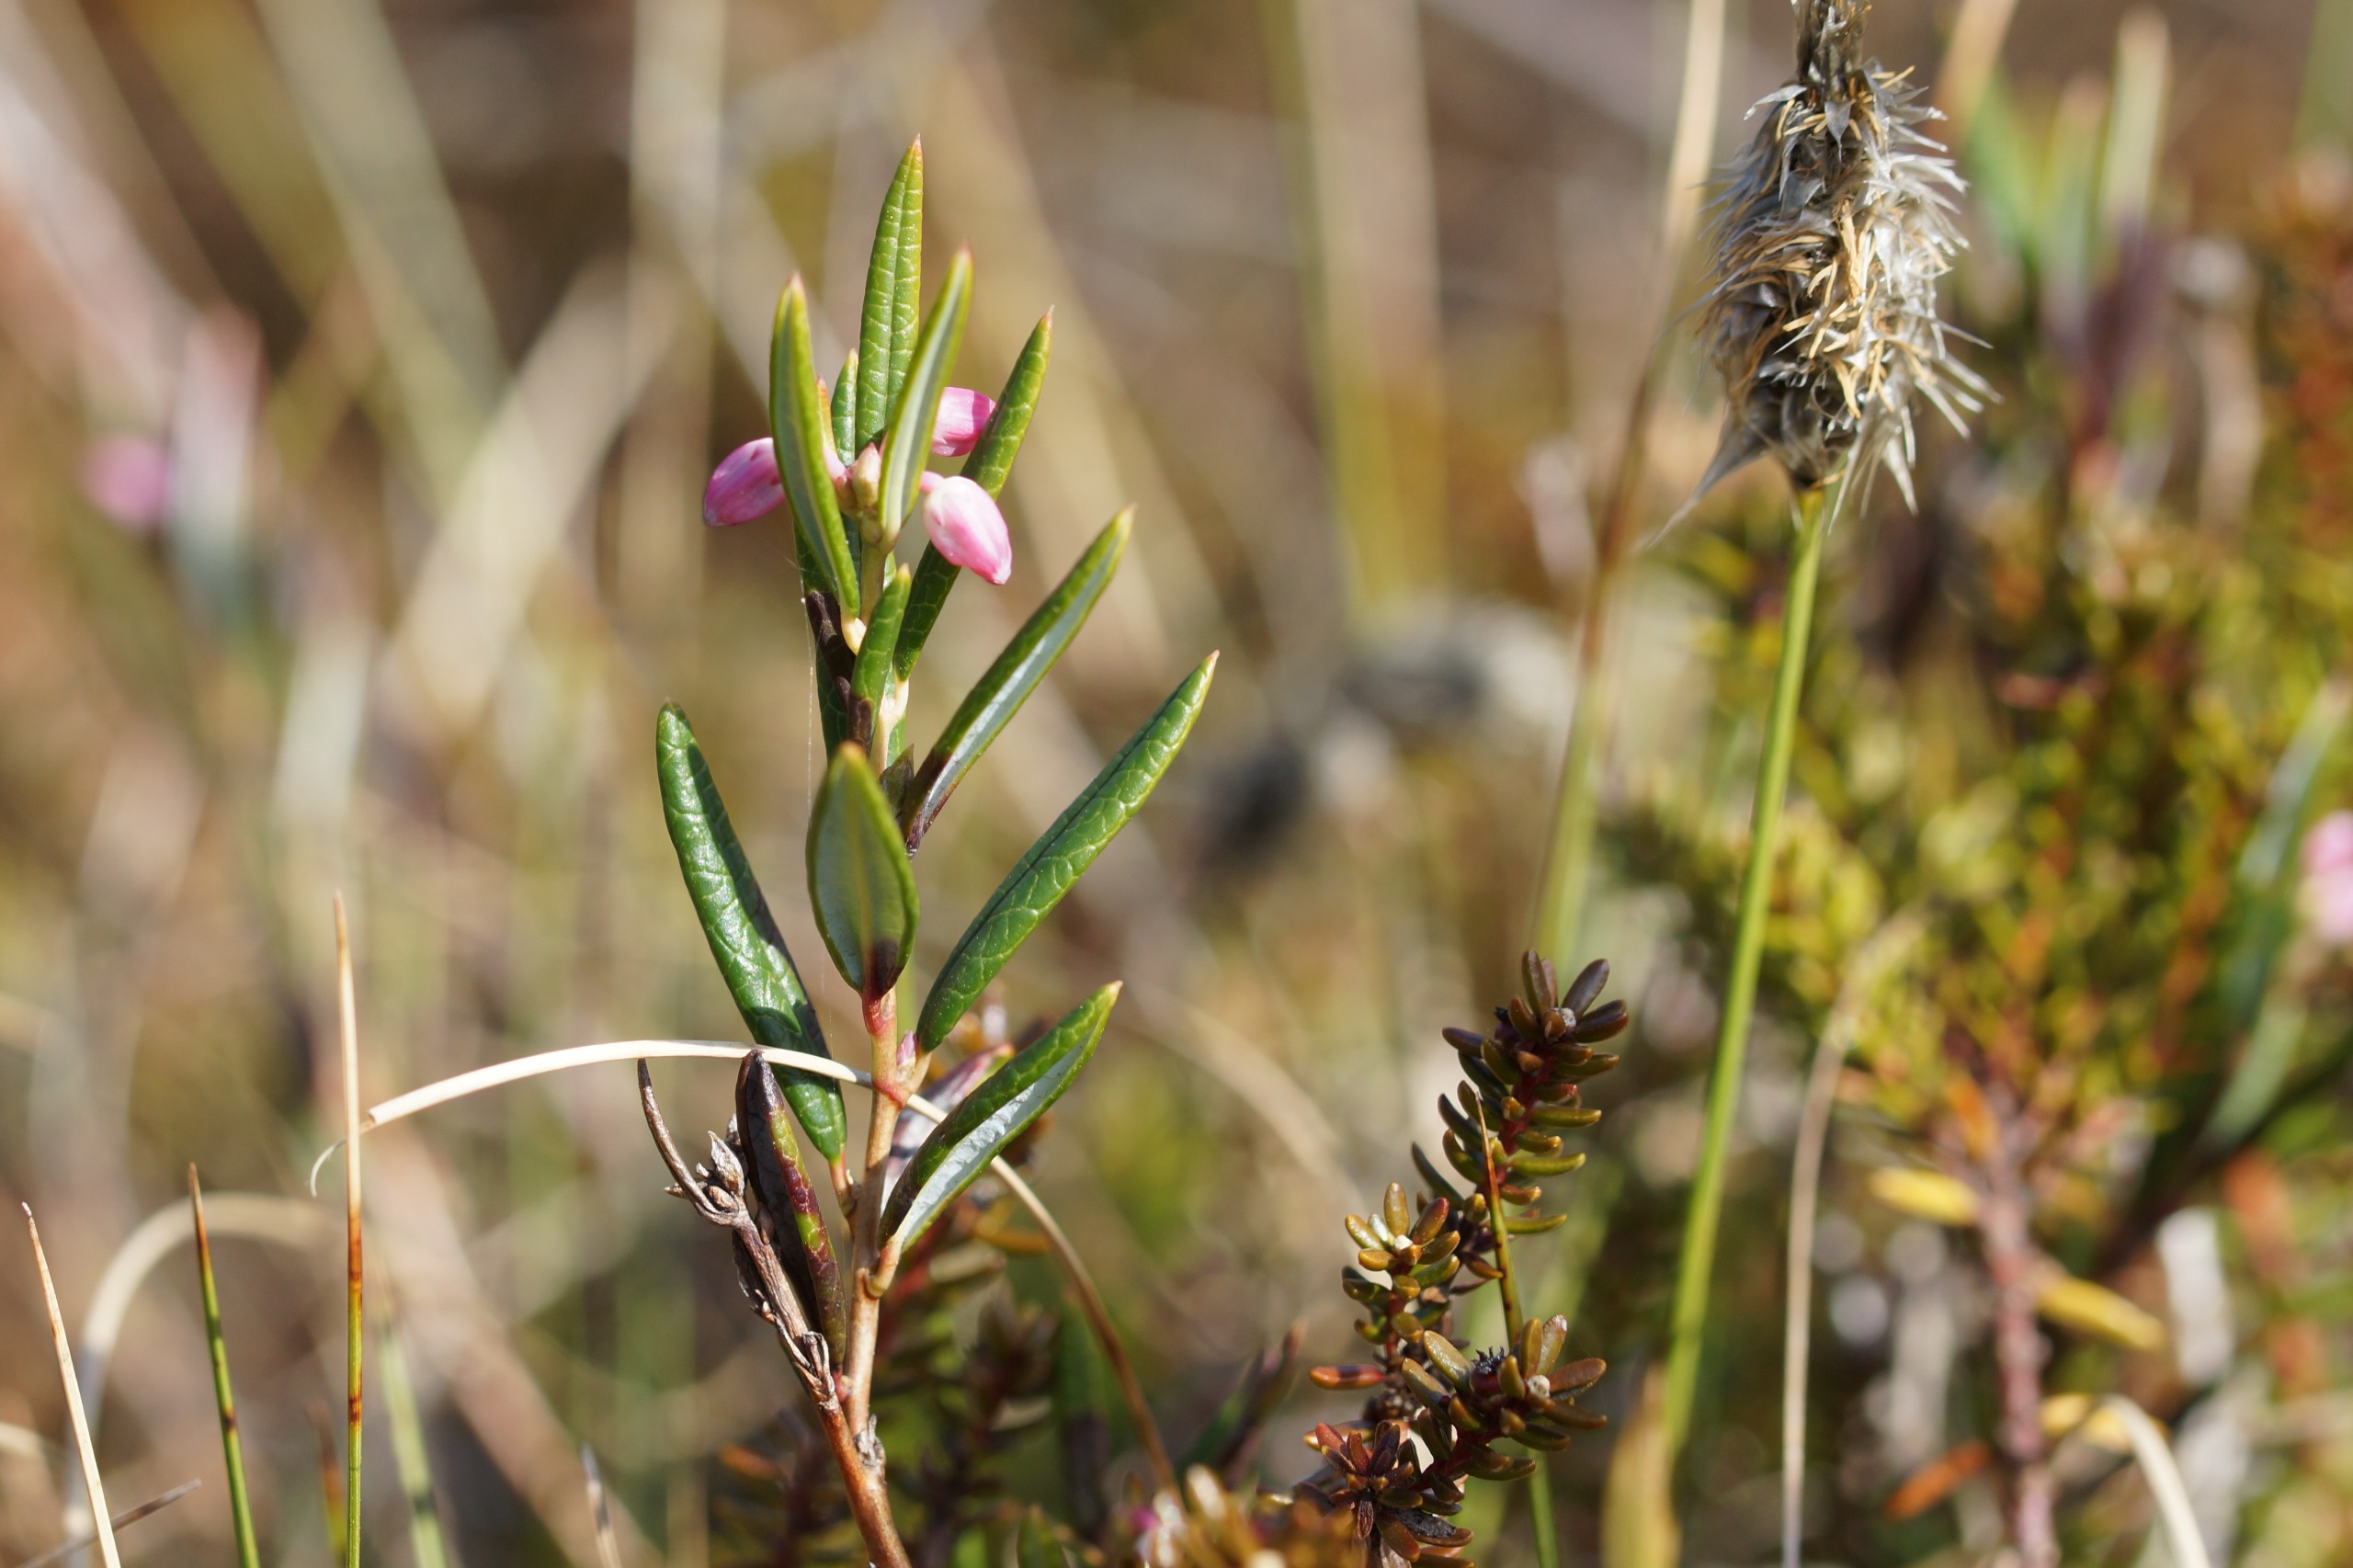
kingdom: Plantae
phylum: Tracheophyta
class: Magnoliopsida
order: Ericales
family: Ericaceae
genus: Andromeda
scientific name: Andromeda polifolia
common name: Rosmarinlyng
